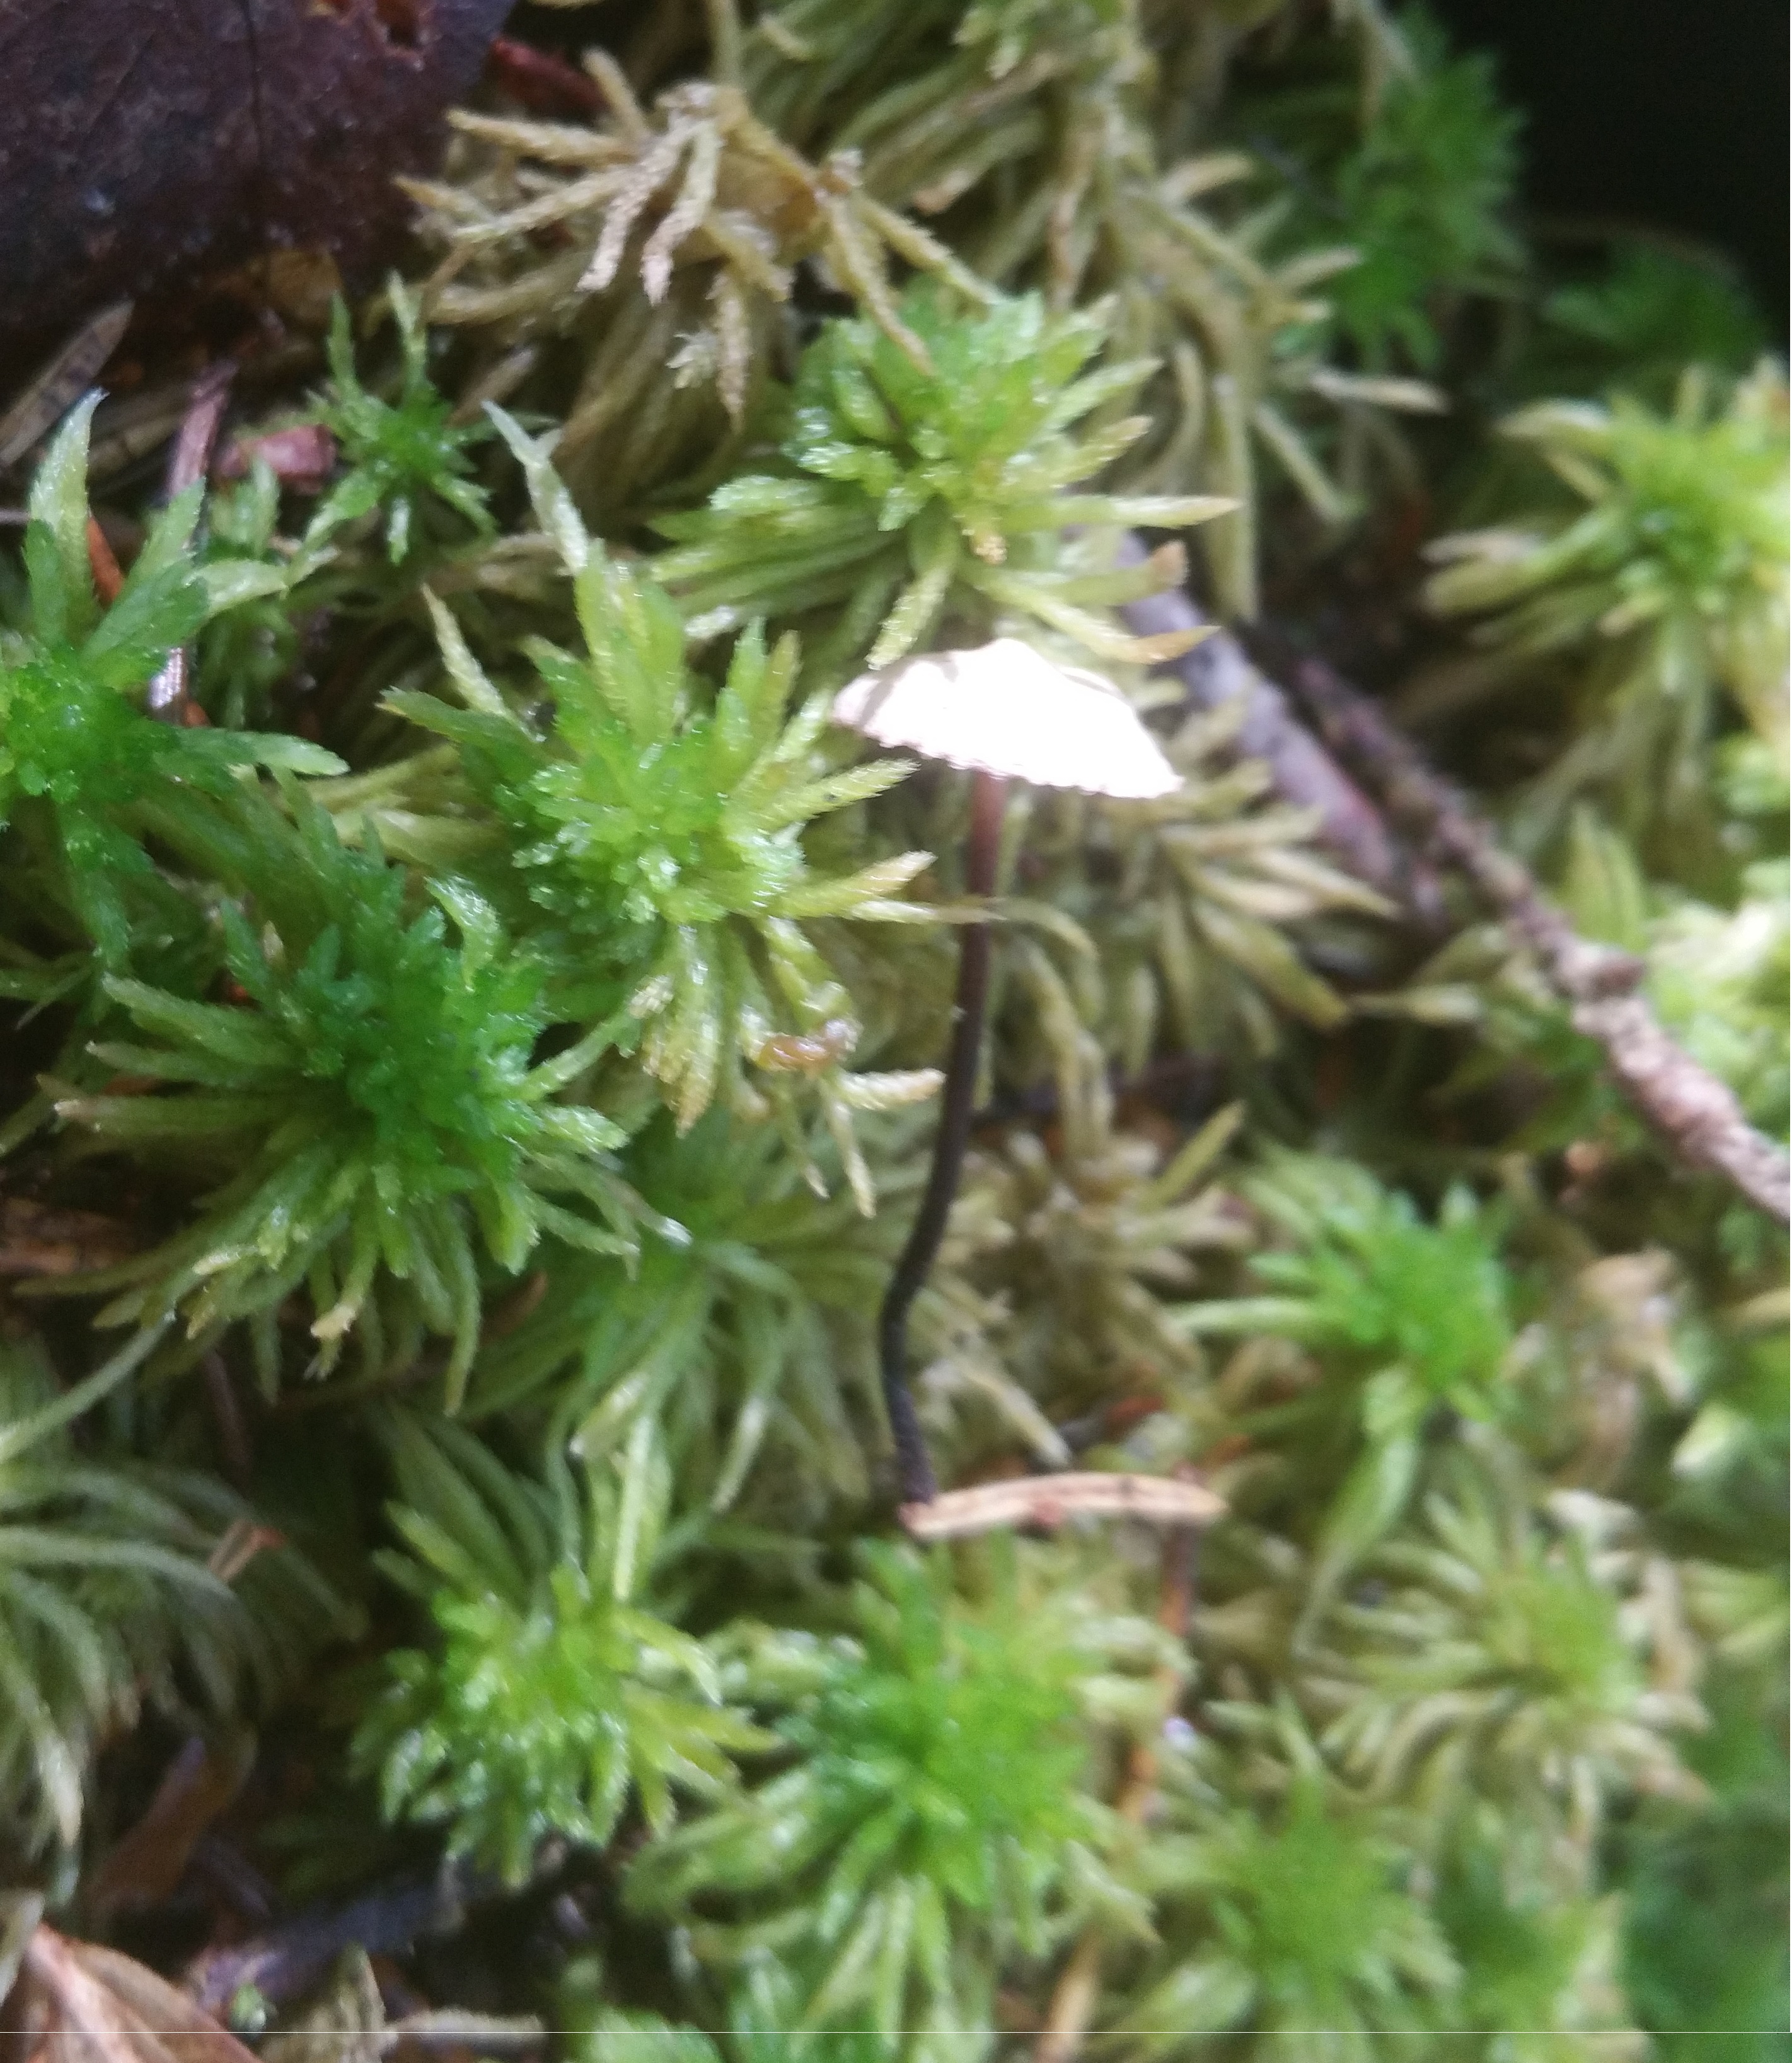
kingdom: Fungi
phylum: Basidiomycota
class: Agaricomycetes
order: Agaricales
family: Omphalotaceae
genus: Paragymnopus
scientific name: Paragymnopus perforans
